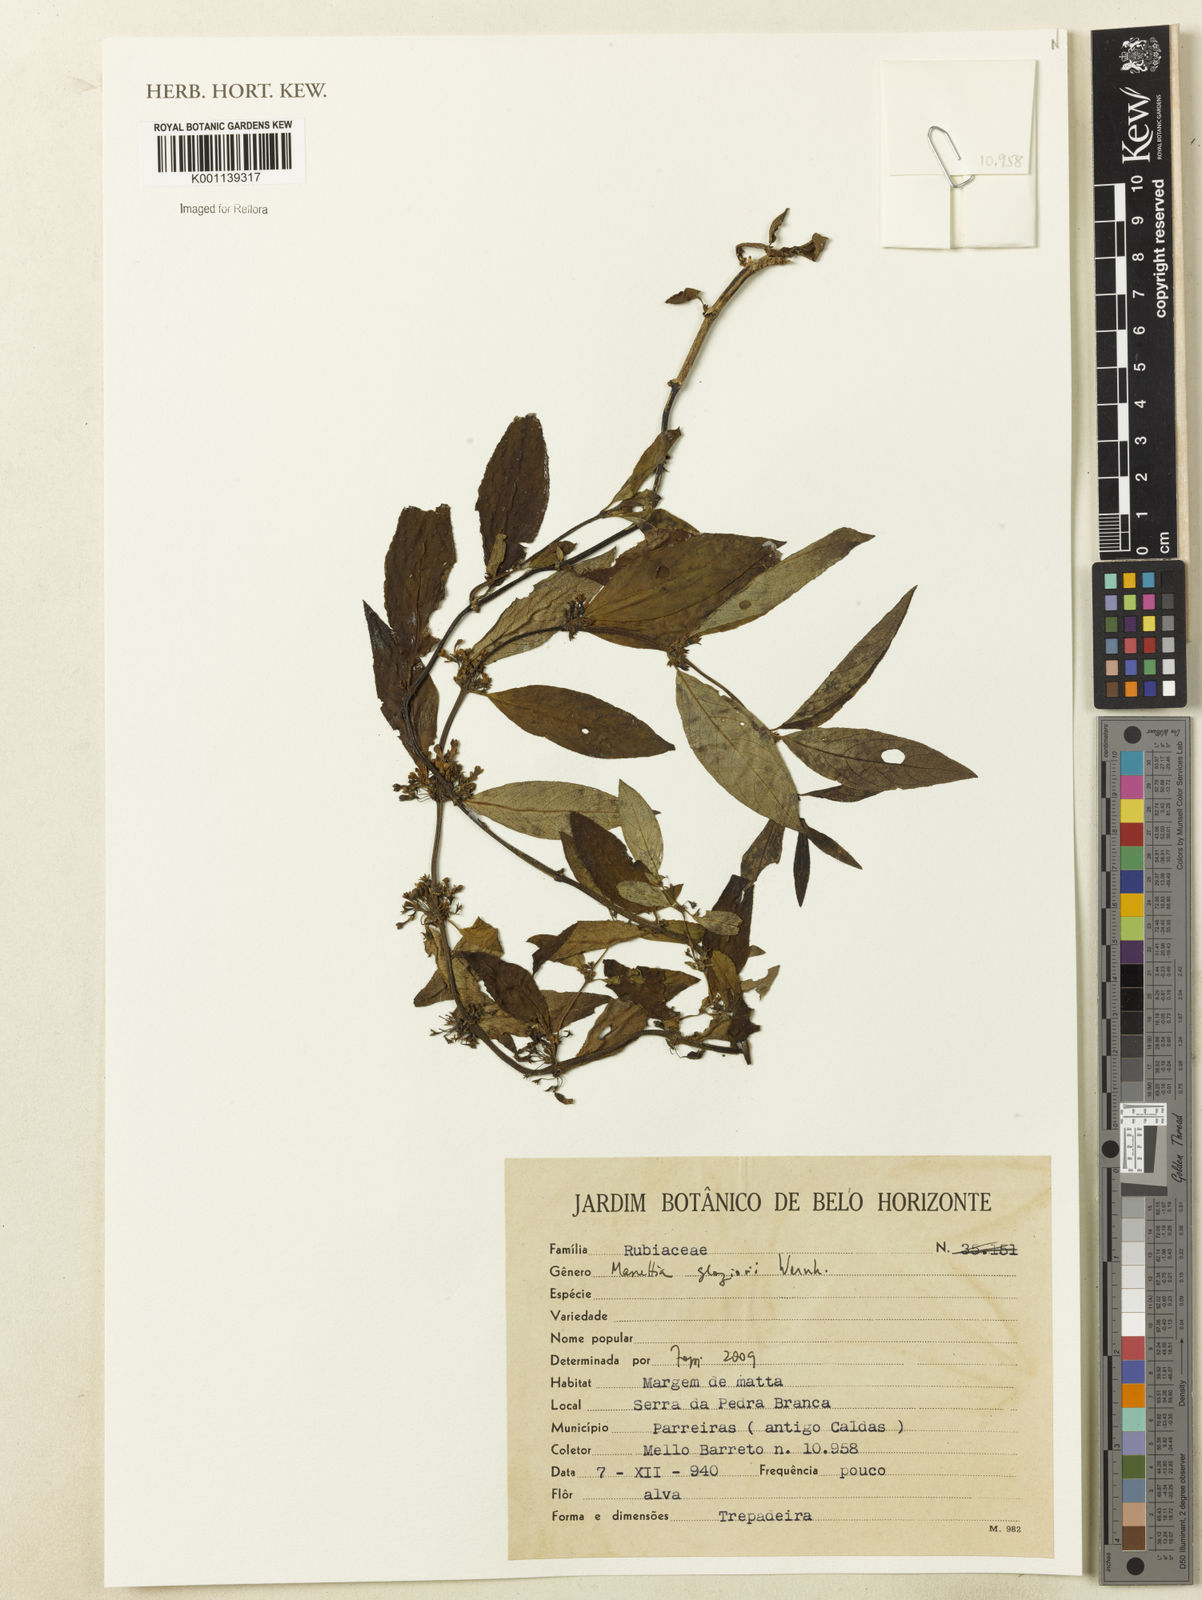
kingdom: Plantae
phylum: Tracheophyta
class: Magnoliopsida
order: Gentianales
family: Rubiaceae
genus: Manettia
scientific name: Manettia glaziovii
